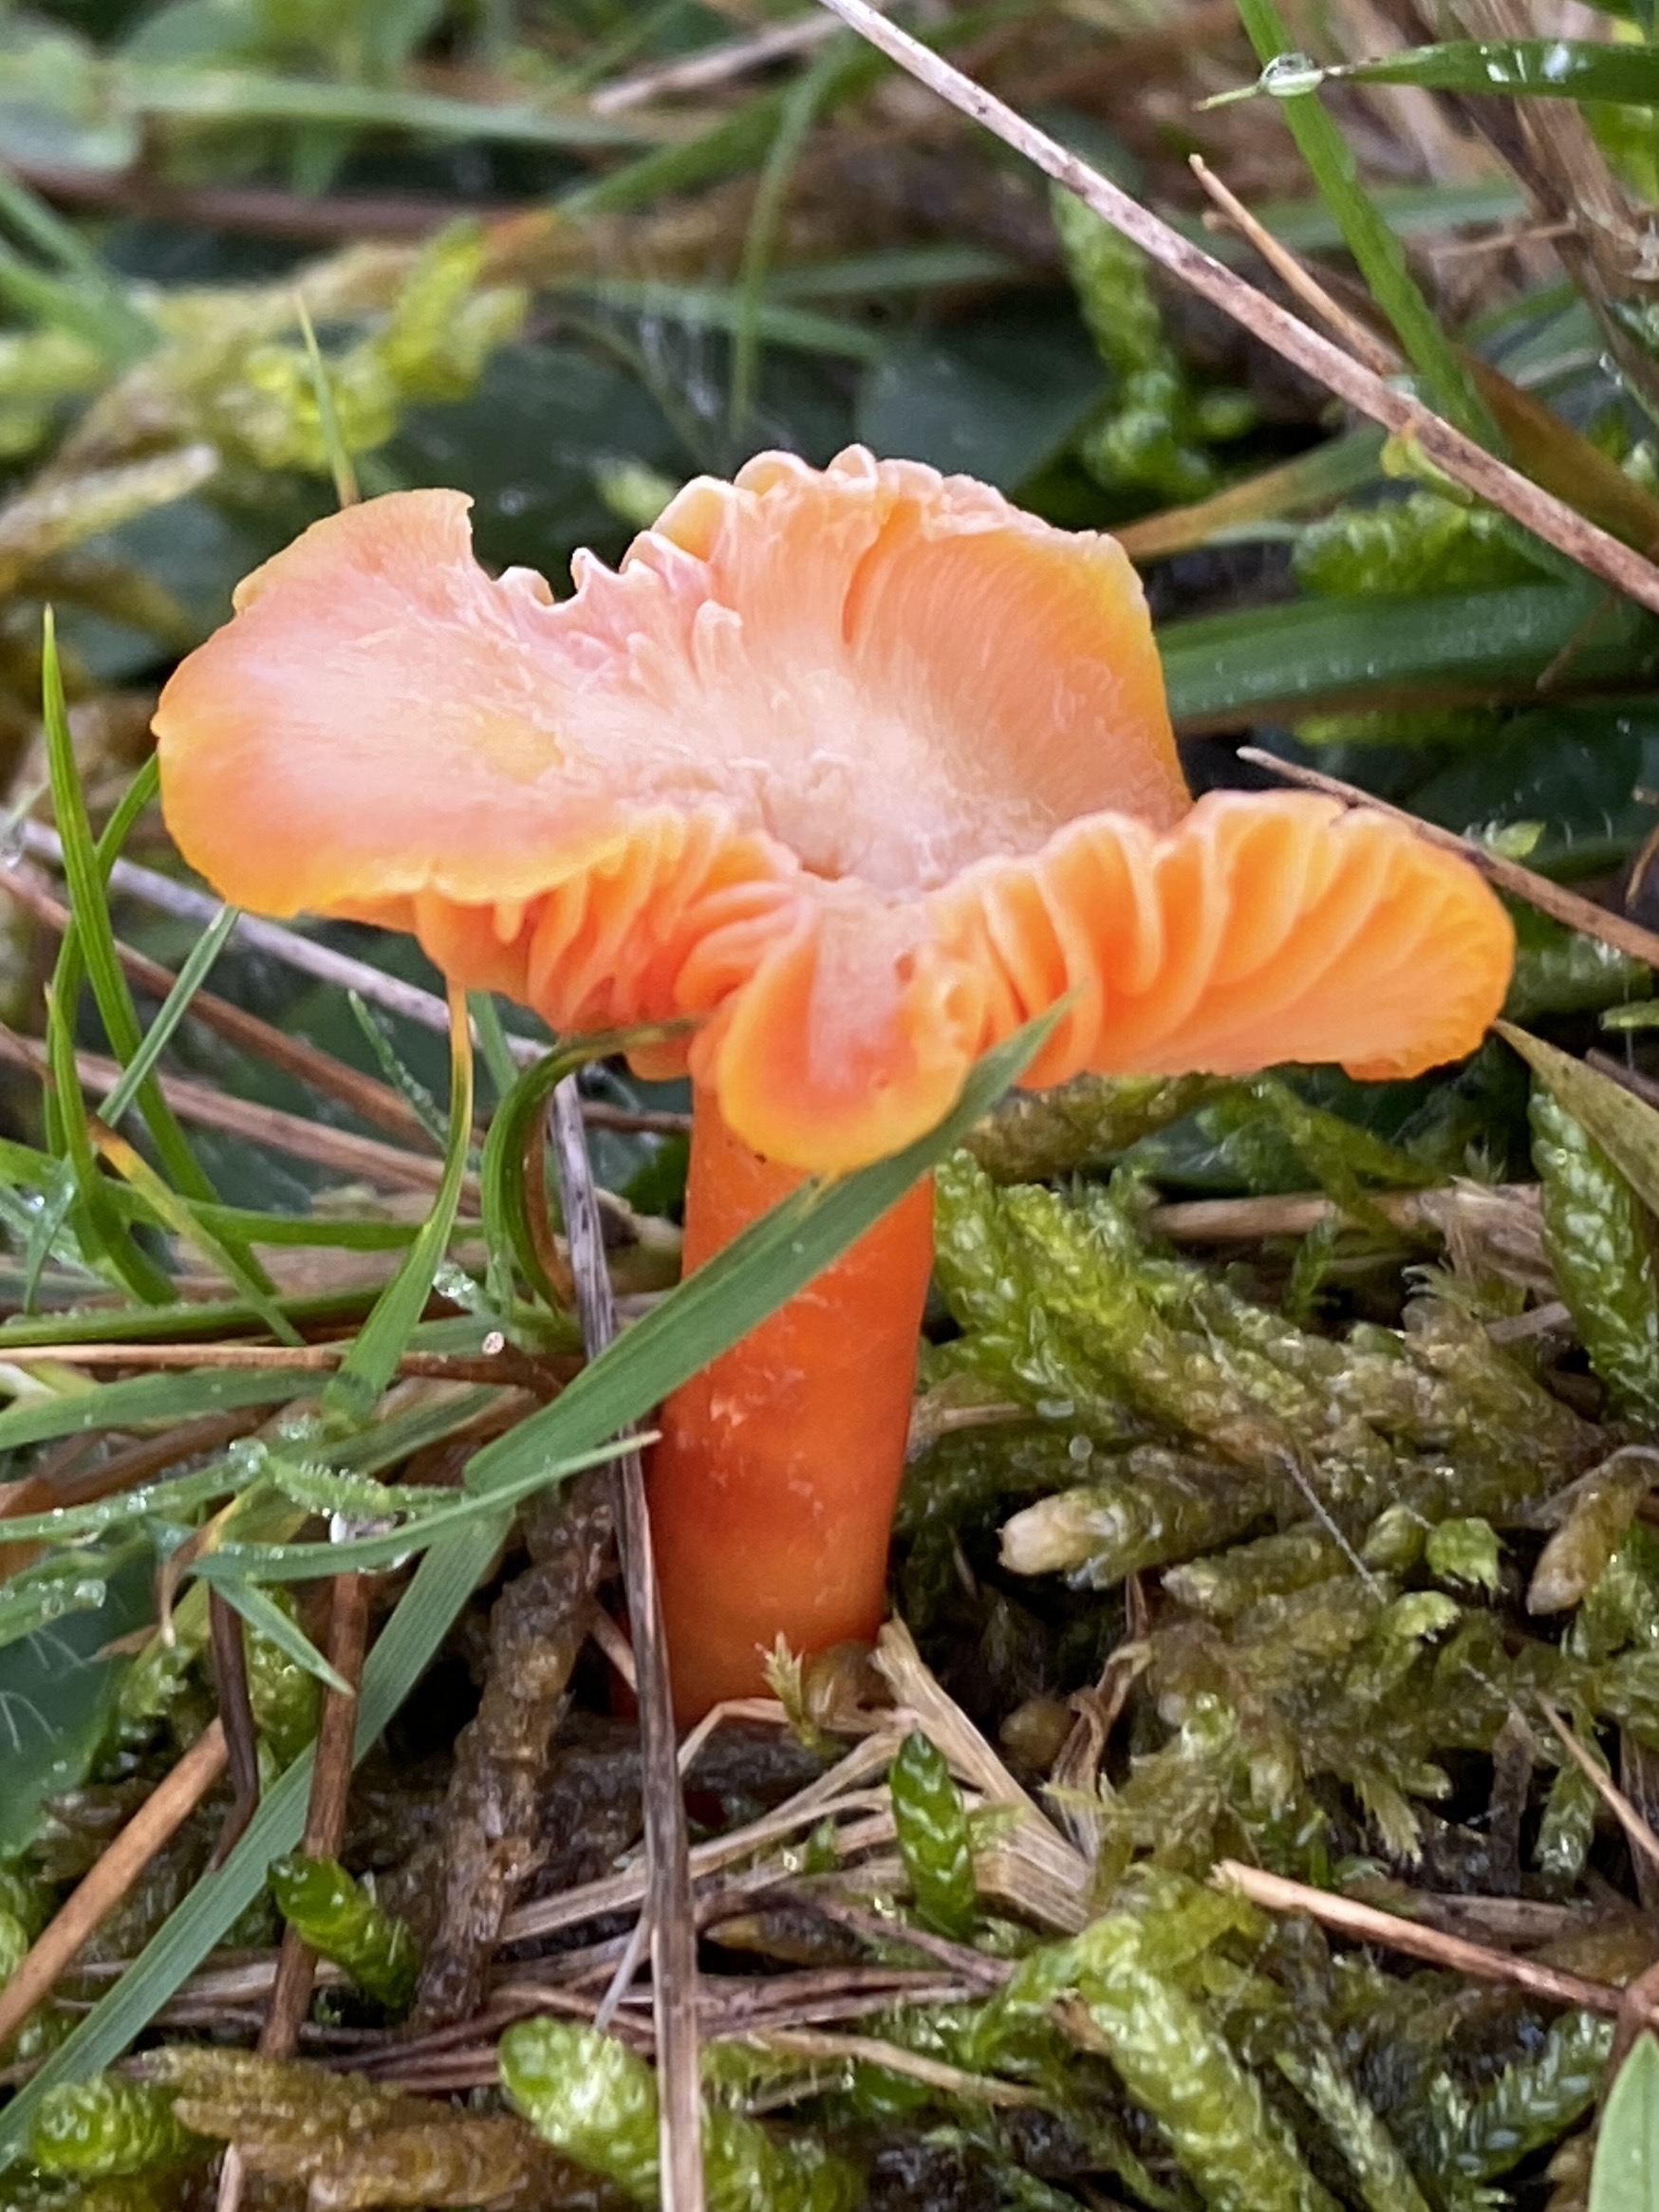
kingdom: Fungi
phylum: Basidiomycota
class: Agaricomycetes
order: Agaricales
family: Hygrophoraceae
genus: Hygrocybe
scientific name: Hygrocybe miniata
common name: mønje-vokshat
